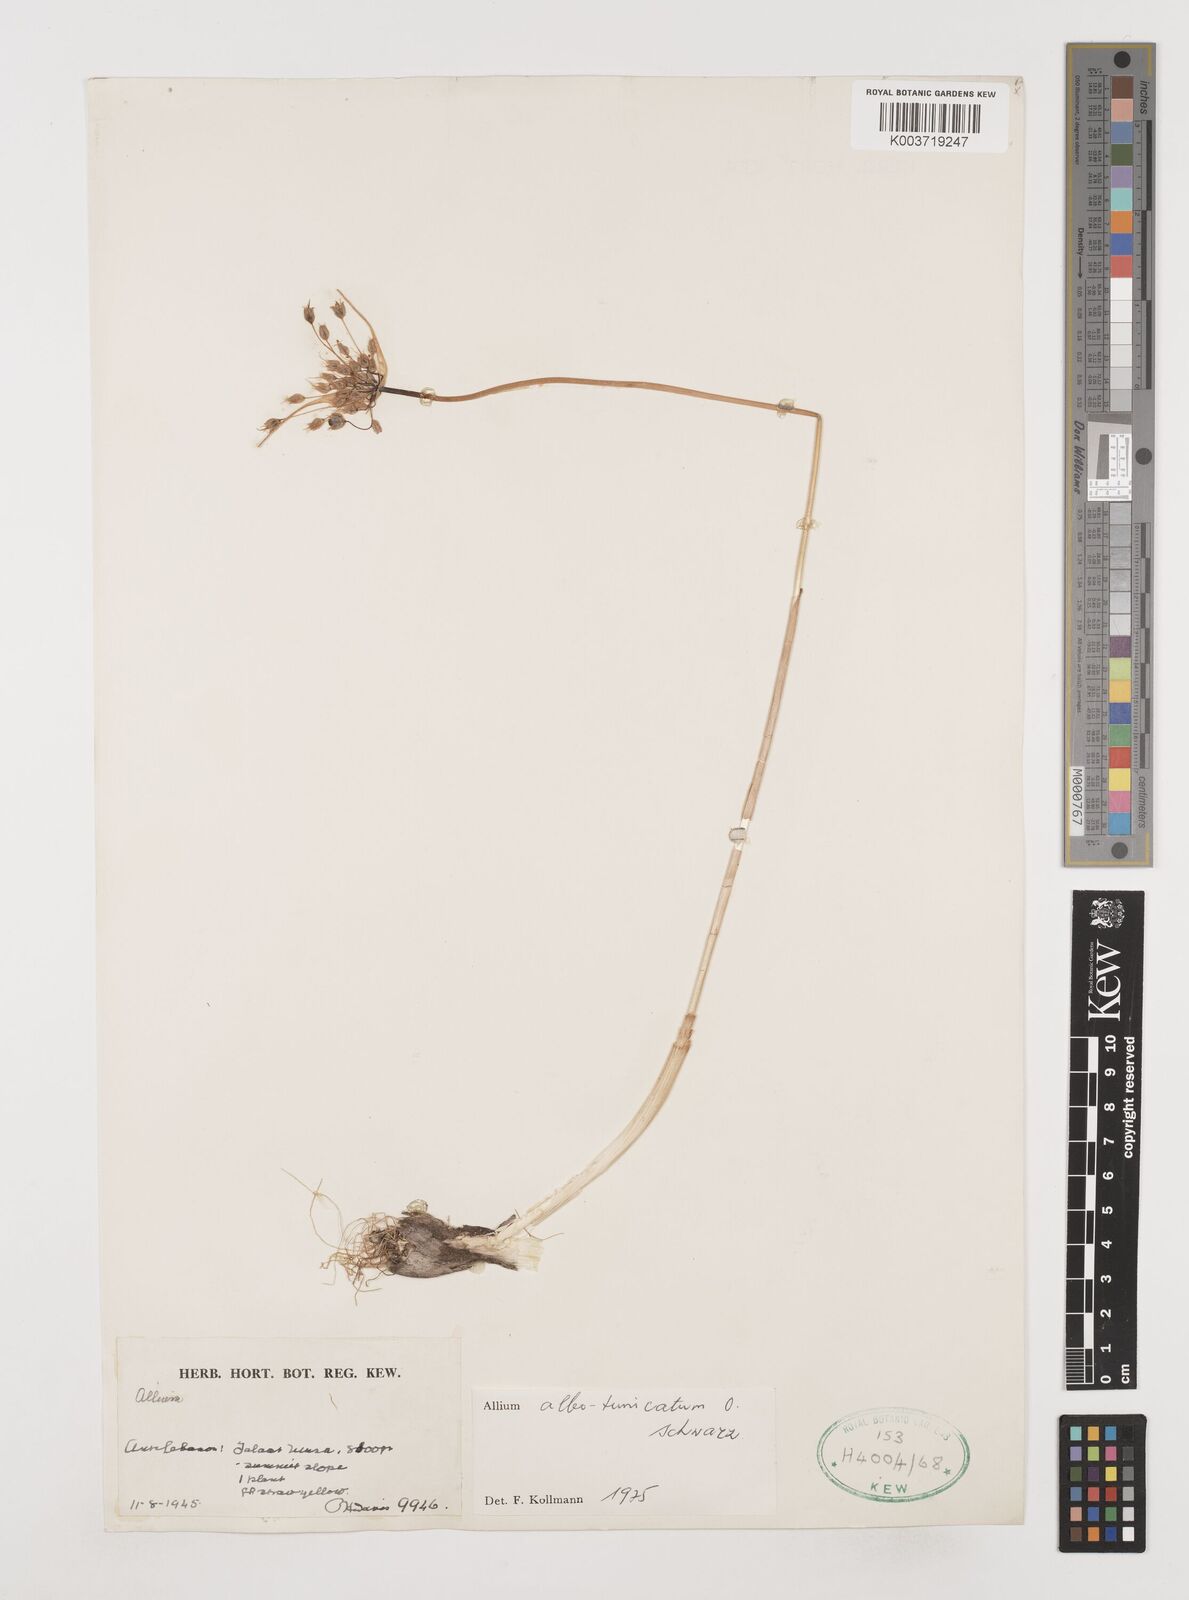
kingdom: Plantae
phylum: Tracheophyta
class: Liliopsida
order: Asparagales
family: Amaryllidaceae
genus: Allium
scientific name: Allium albotunicatum
